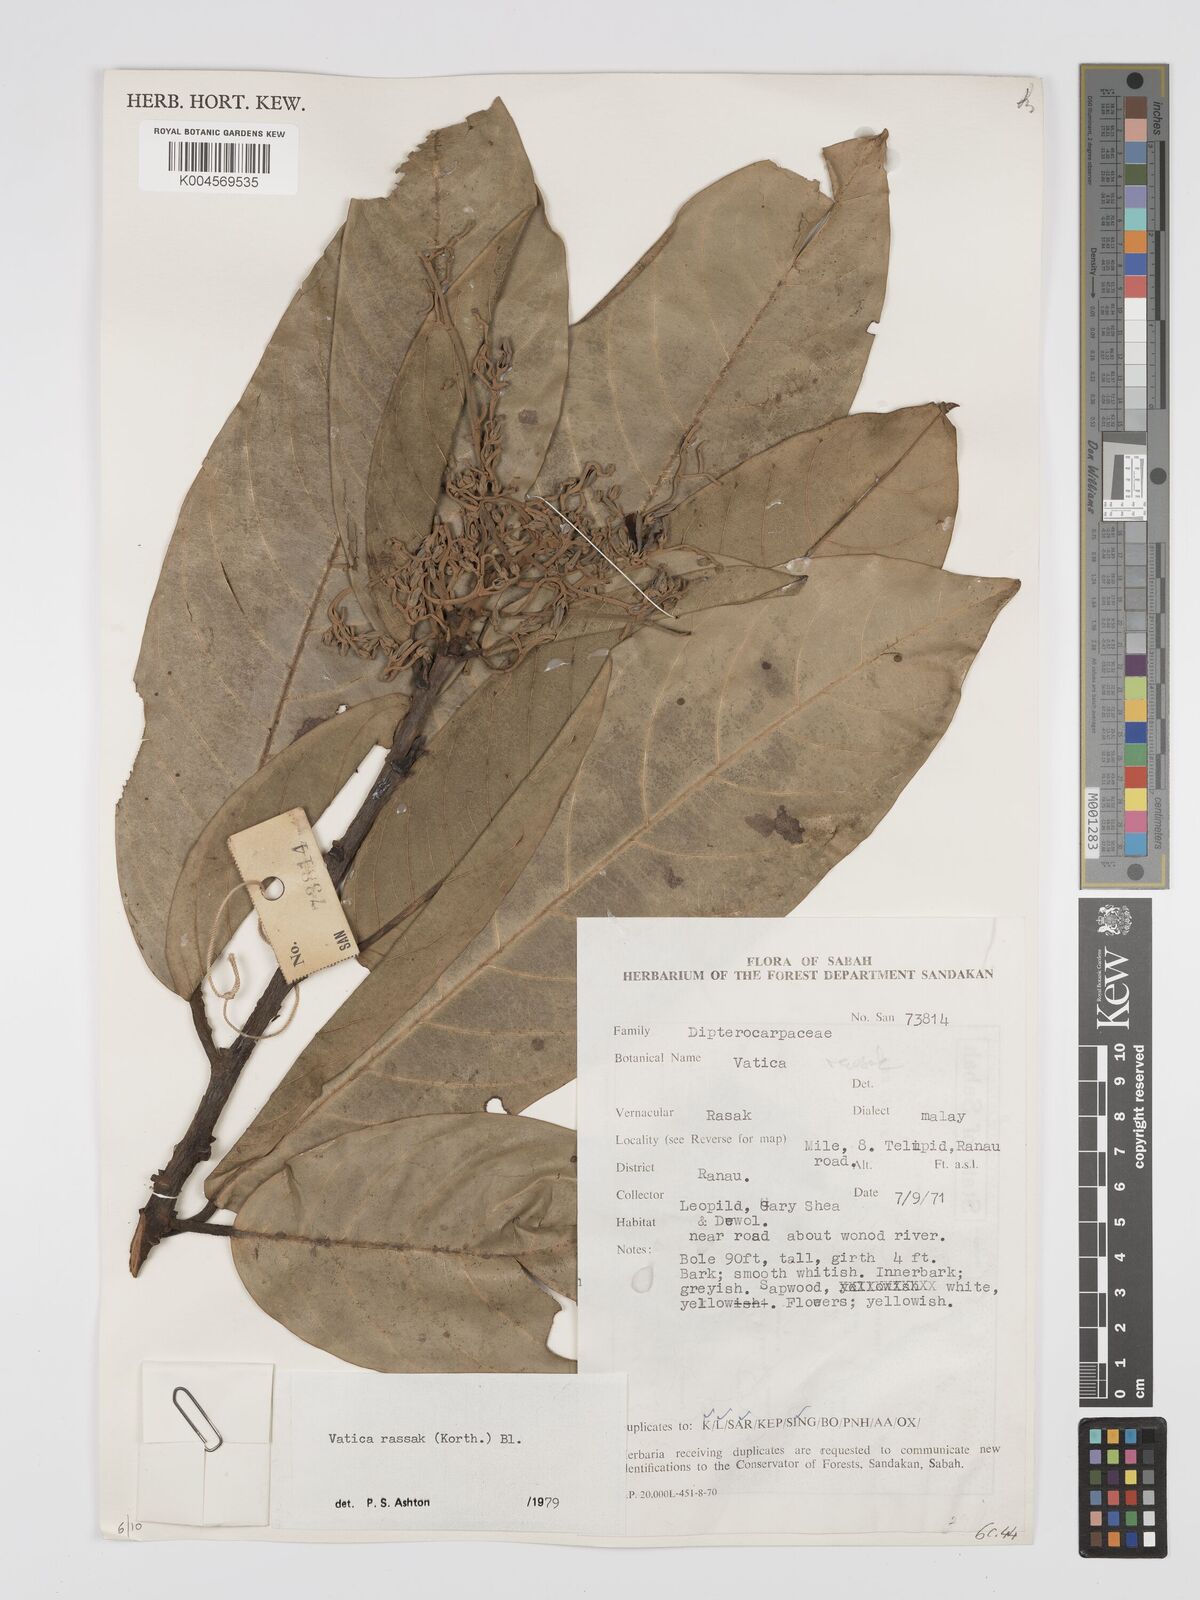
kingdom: Plantae
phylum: Tracheophyta
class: Magnoliopsida
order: Malvales
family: Dipterocarpaceae
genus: Vatica
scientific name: Vatica rassak
